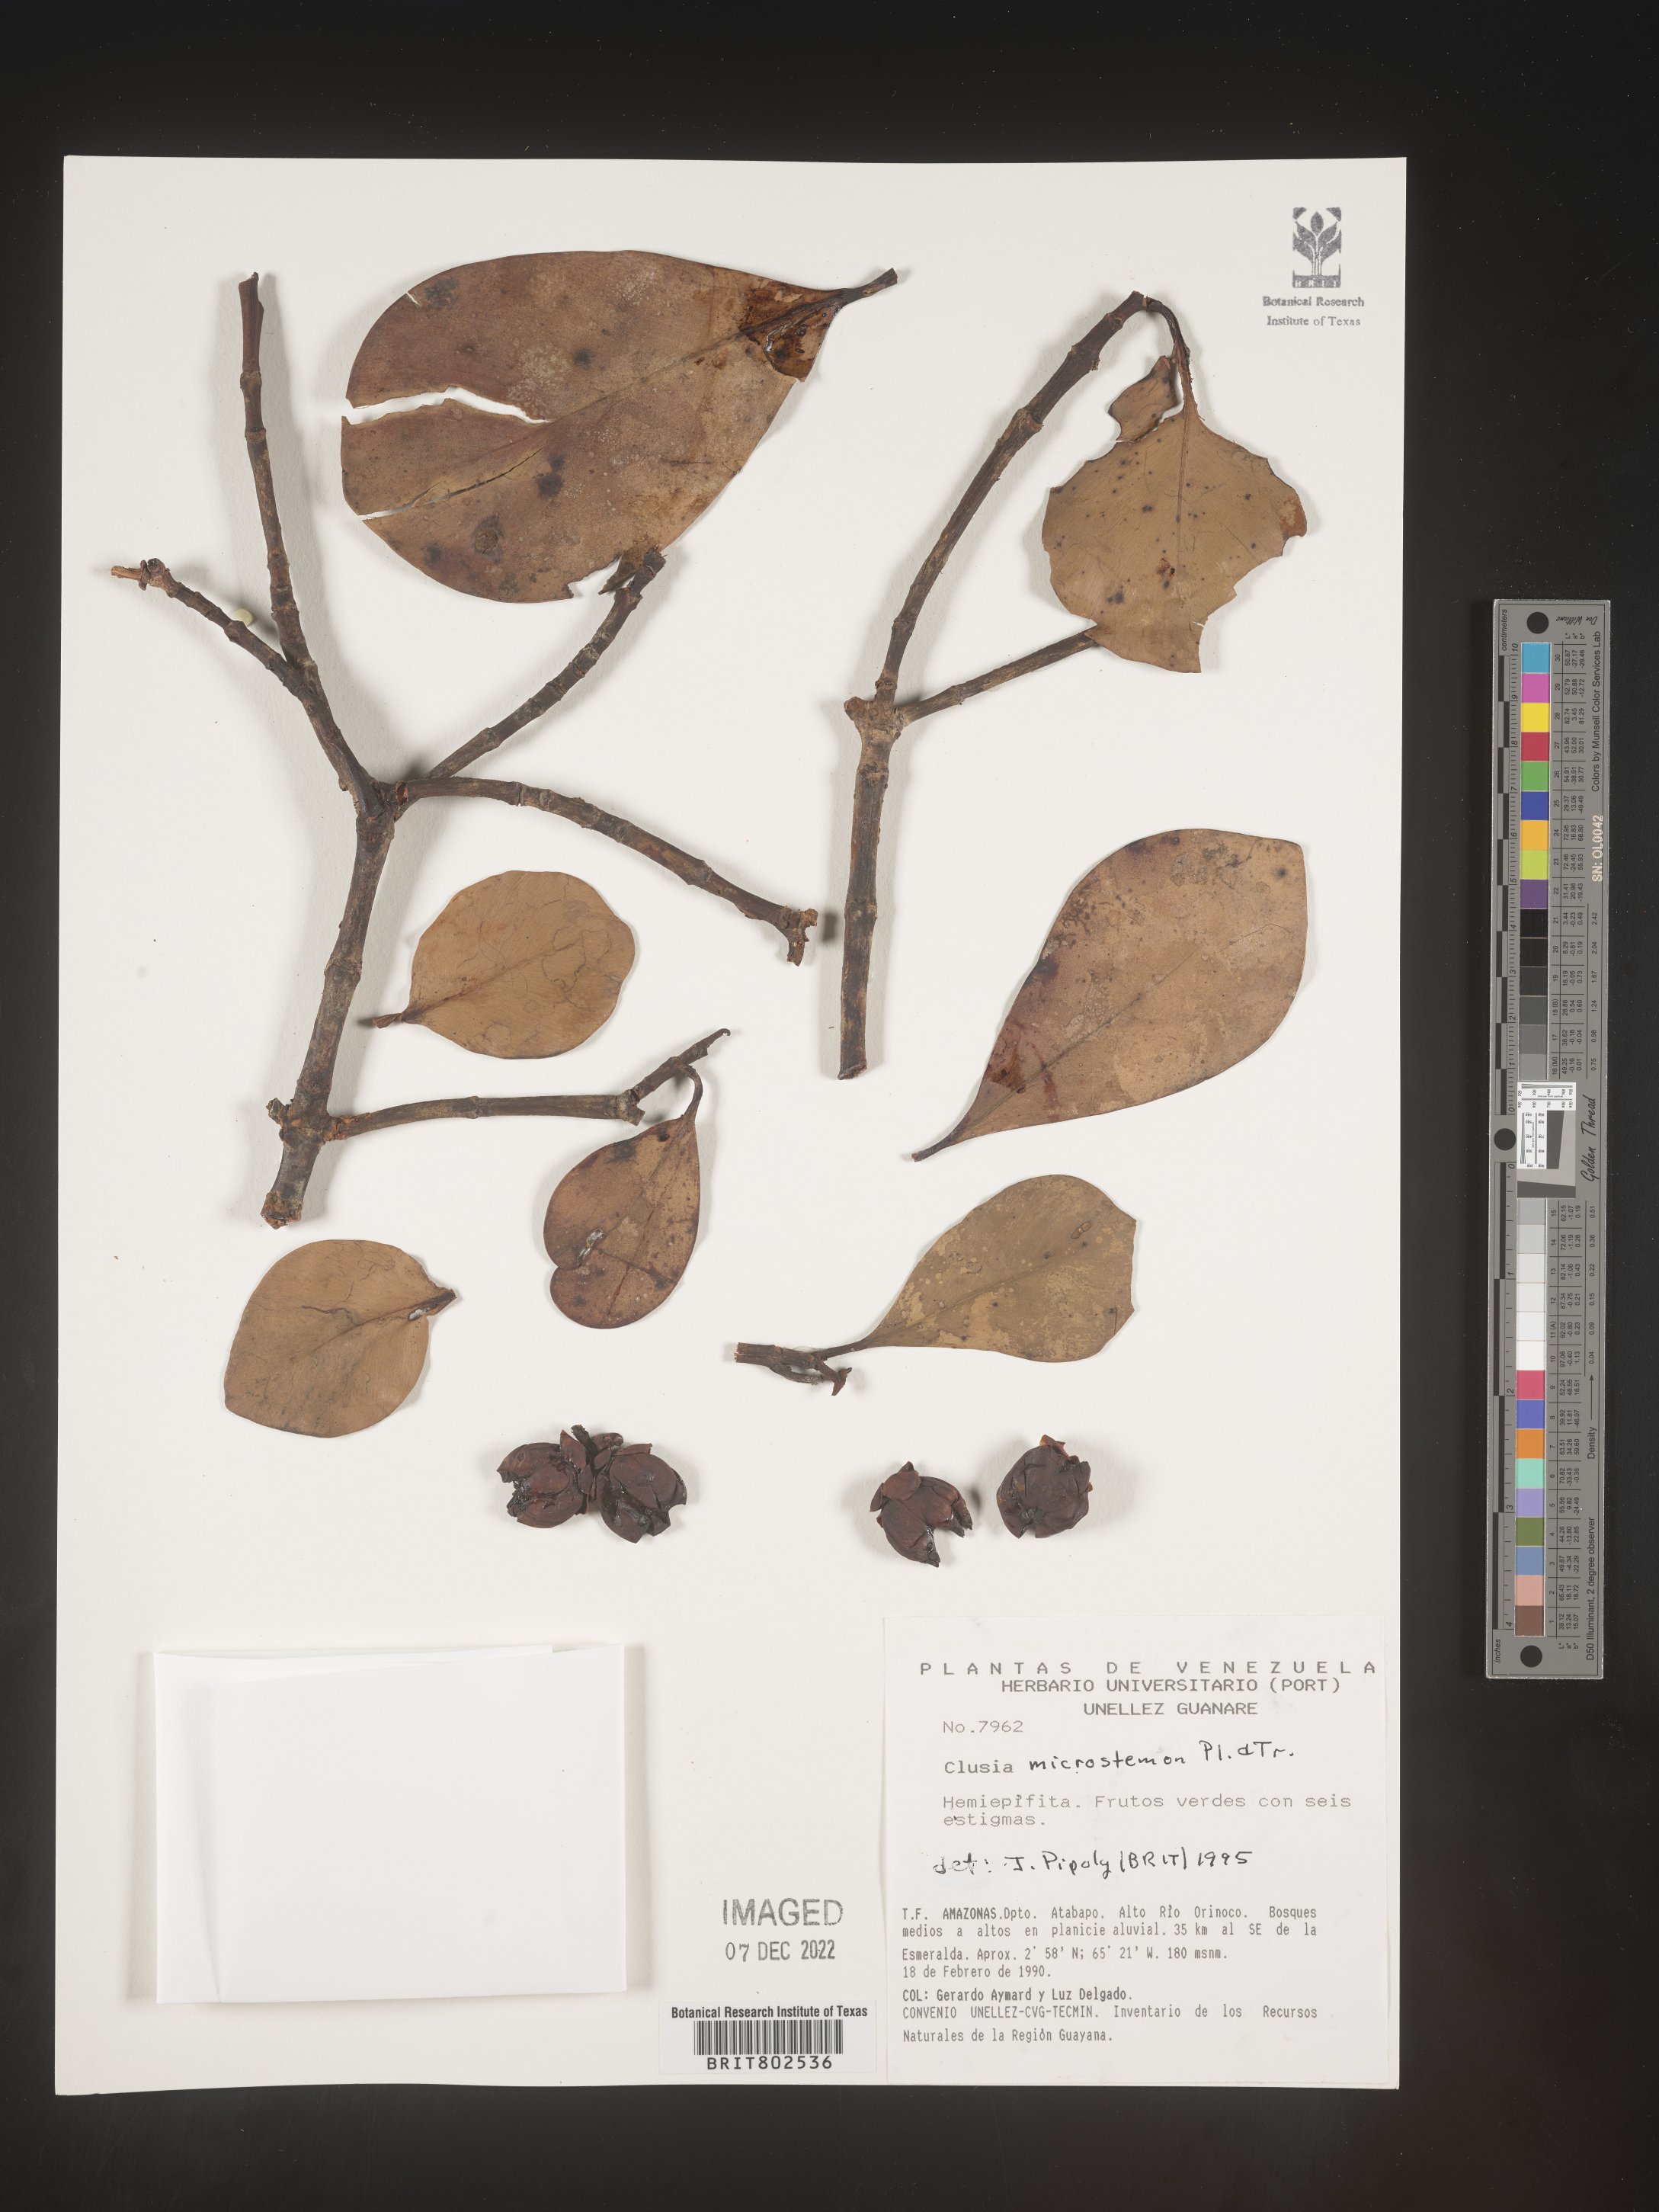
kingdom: Plantae
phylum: Tracheophyta
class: Magnoliopsida
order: Malpighiales
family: Clusiaceae
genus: Clusia
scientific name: Clusia microstemon
